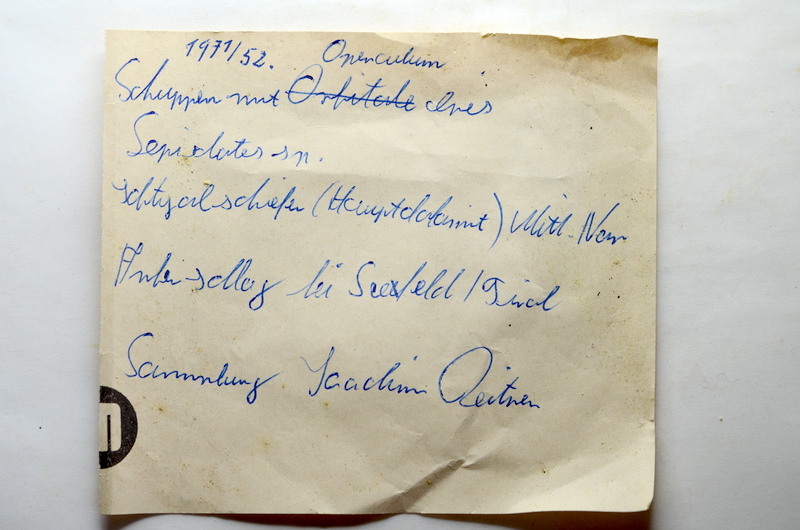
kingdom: Animalia
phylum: Chordata
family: Semionotidae
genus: Semionotus
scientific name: Semionotus
